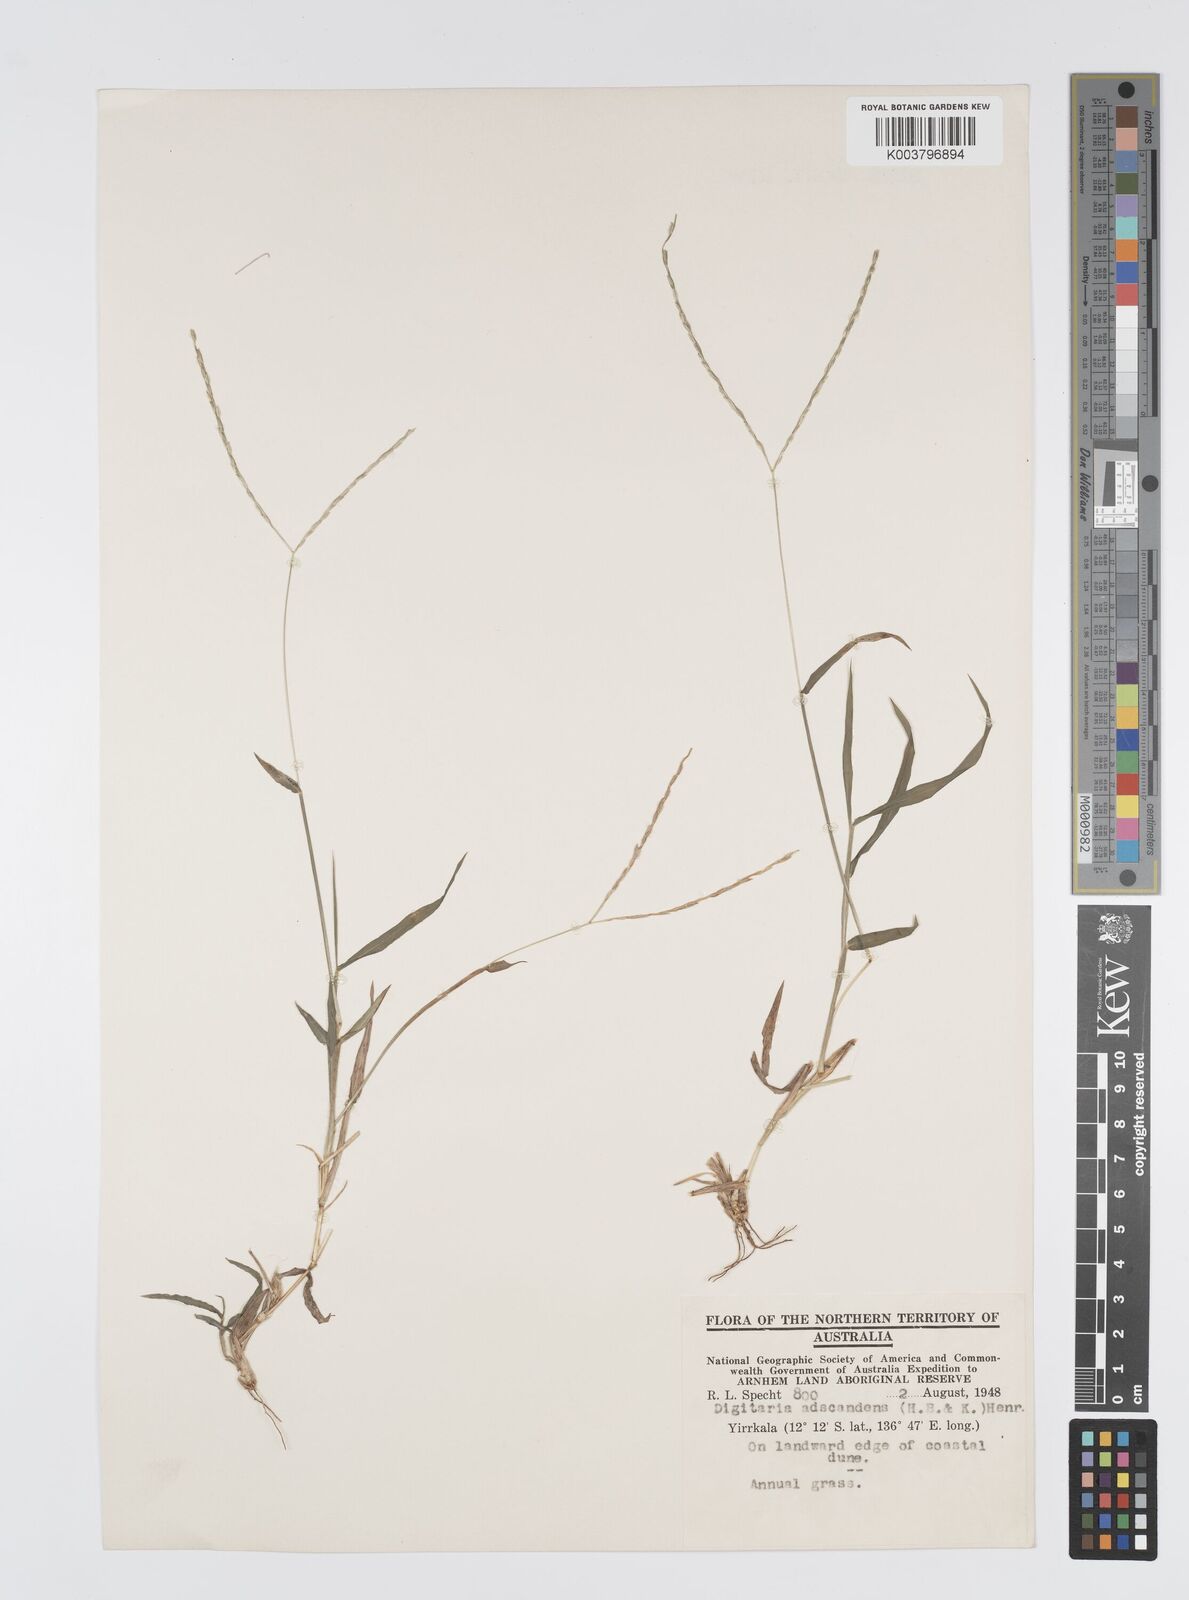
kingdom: Plantae
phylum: Tracheophyta
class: Liliopsida
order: Poales
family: Poaceae
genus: Digitaria
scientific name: Digitaria bicornis
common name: Asian crabgrass
